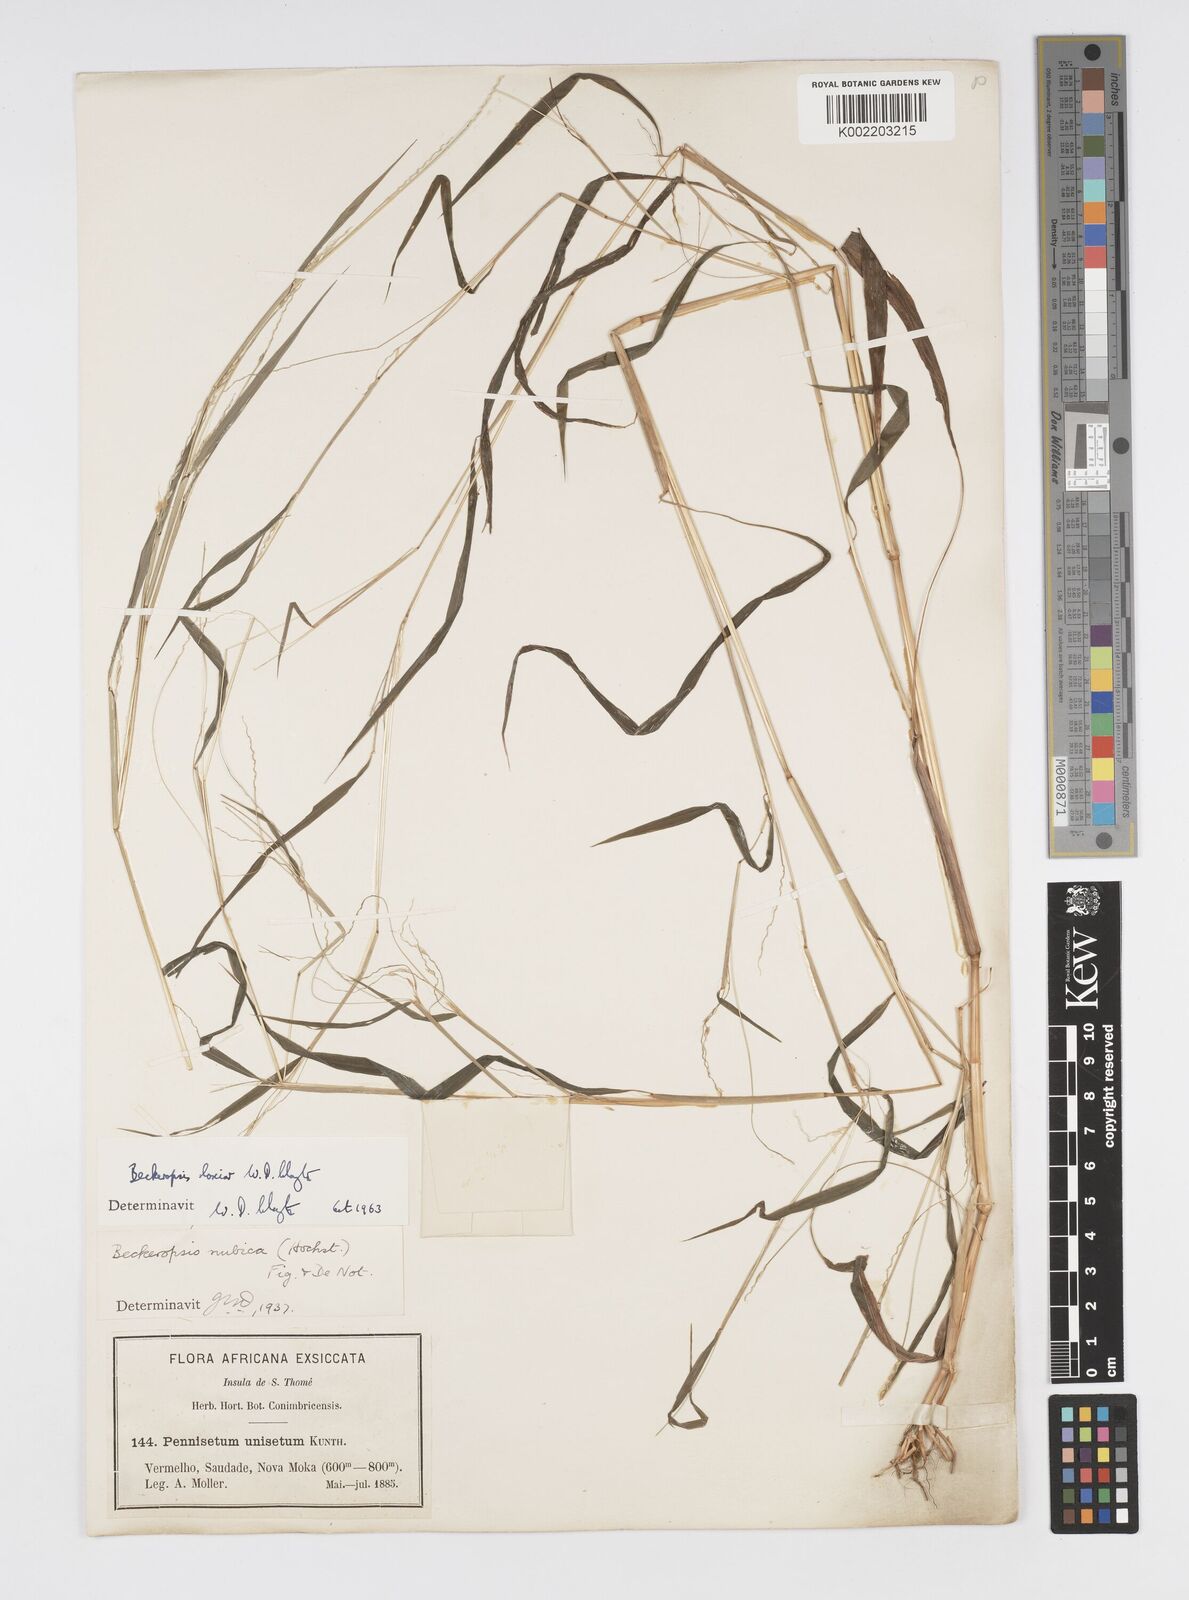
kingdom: Plantae
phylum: Tracheophyta
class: Liliopsida
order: Poales
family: Poaceae
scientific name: Poaceae
